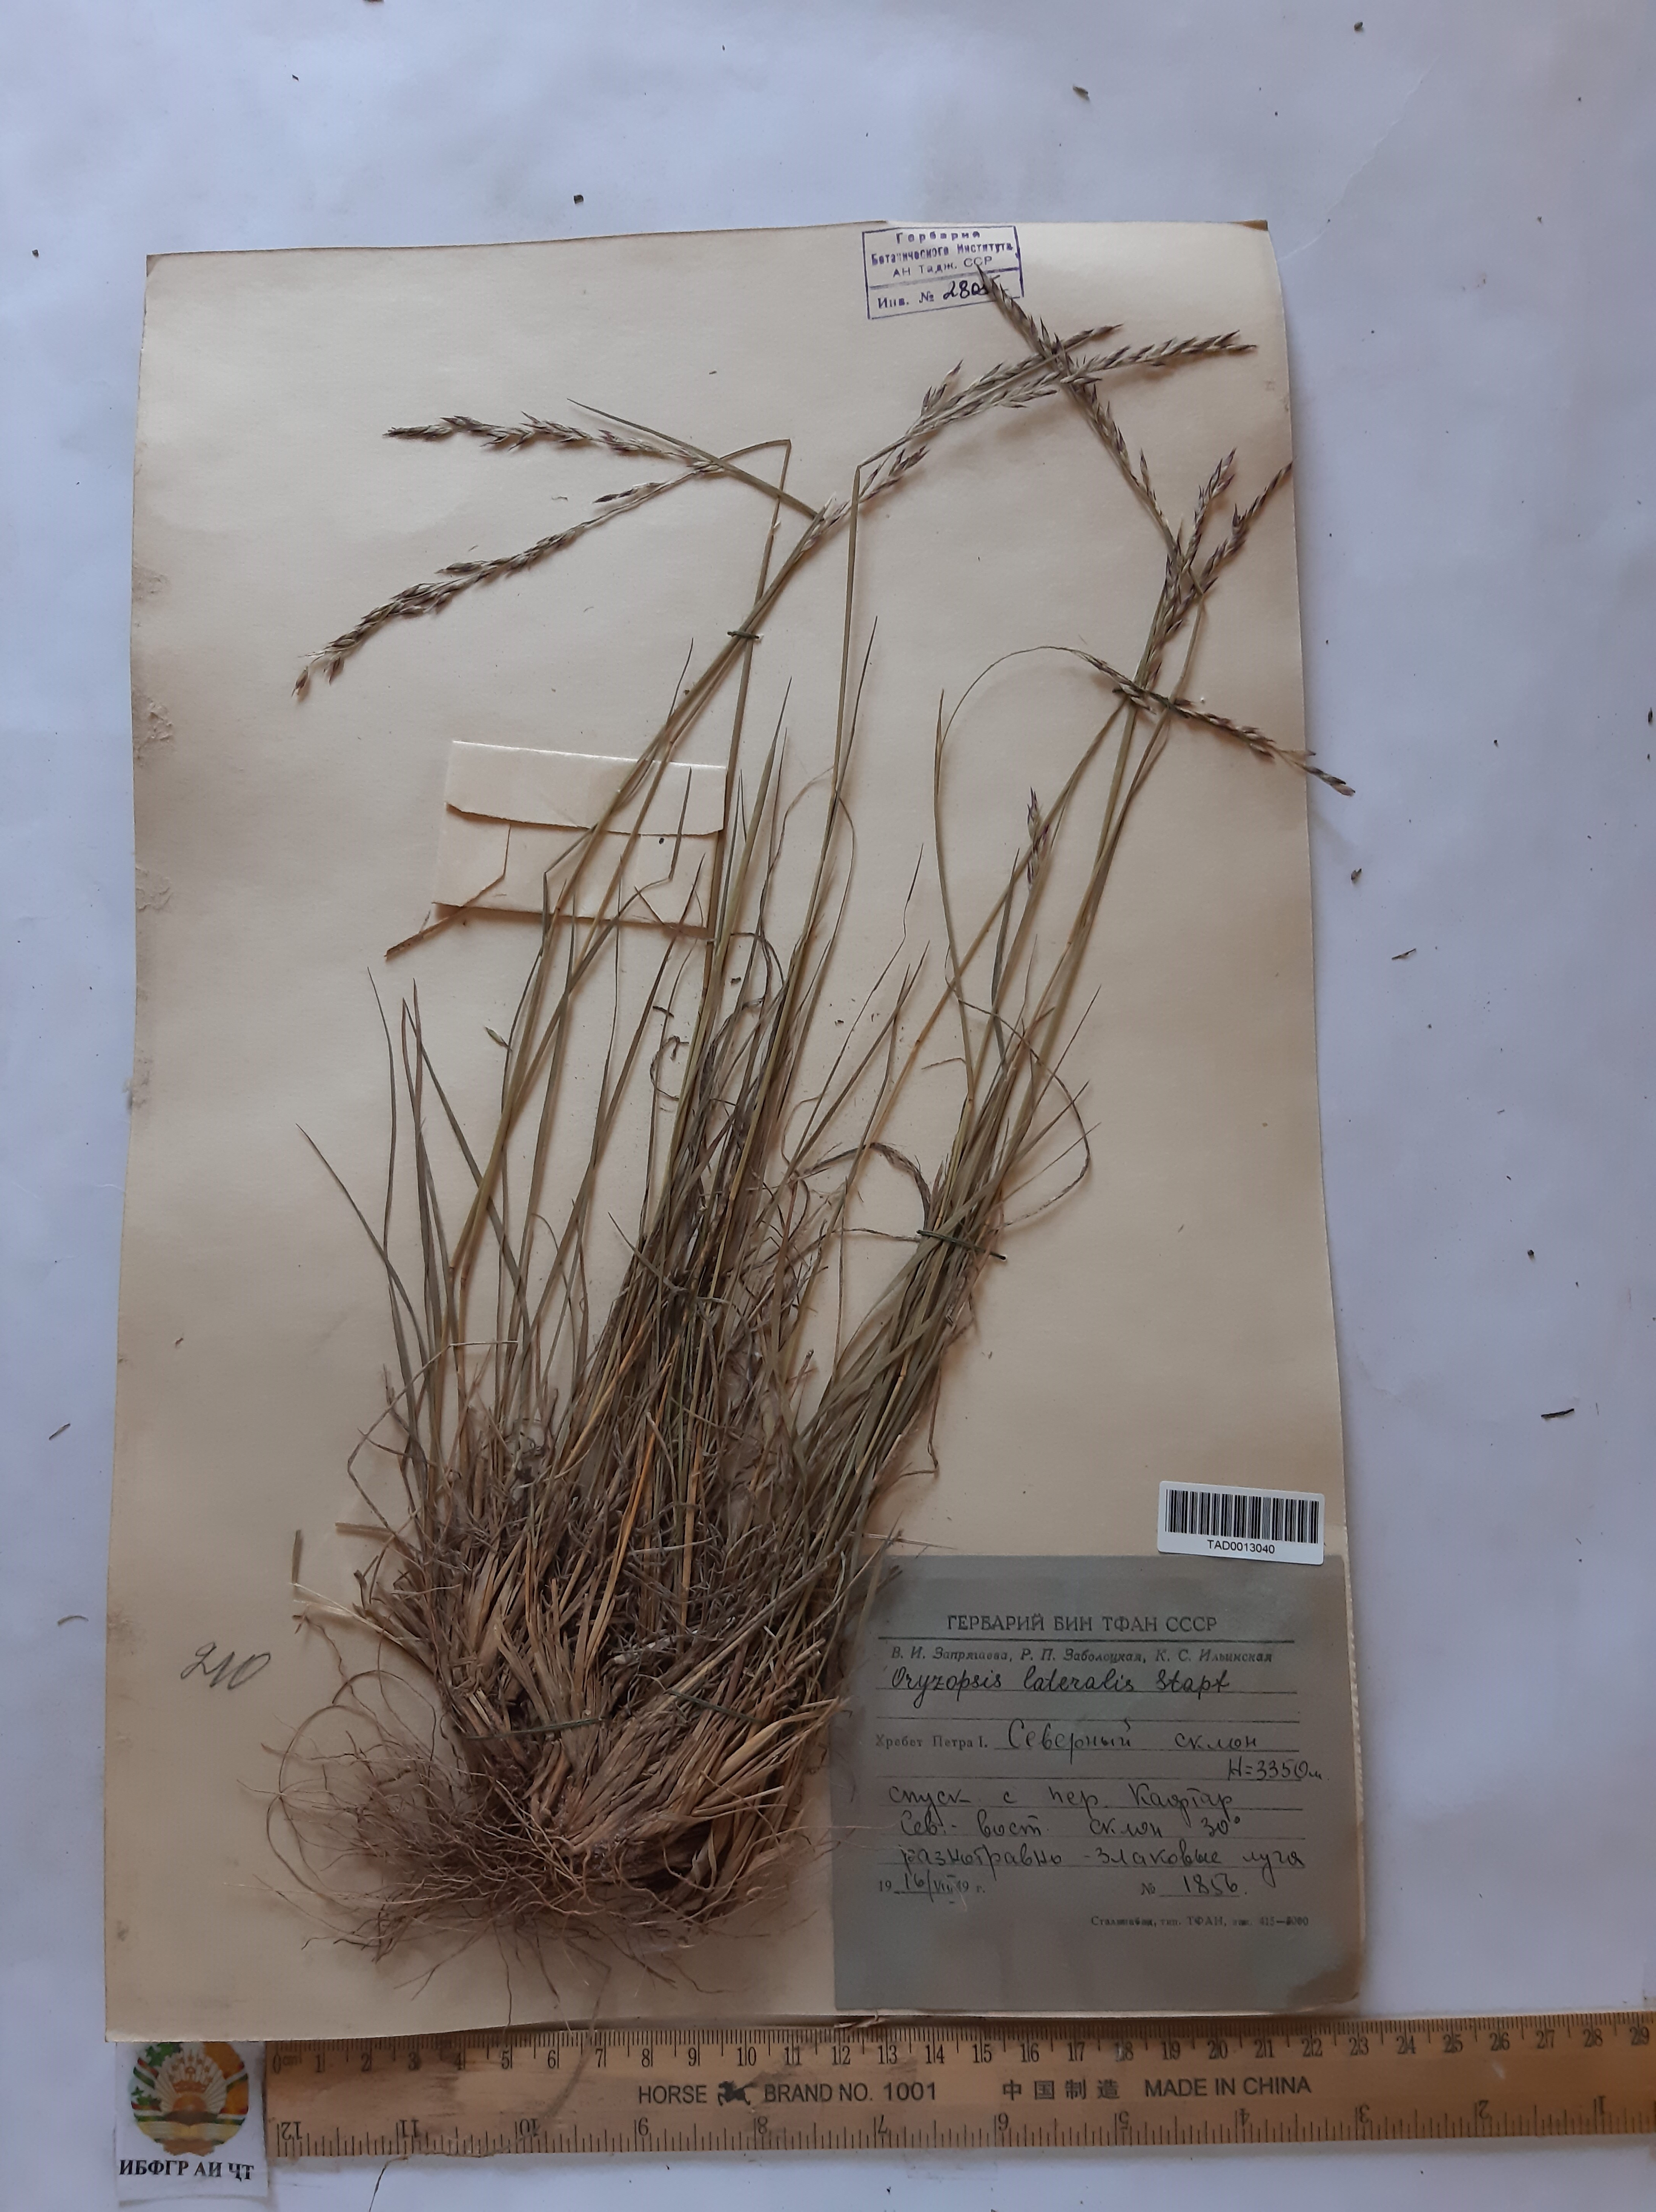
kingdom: Plantae
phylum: Tracheophyta
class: Liliopsida
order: Poales
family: Poaceae
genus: Piptatherum
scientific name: Piptatherum laterale
